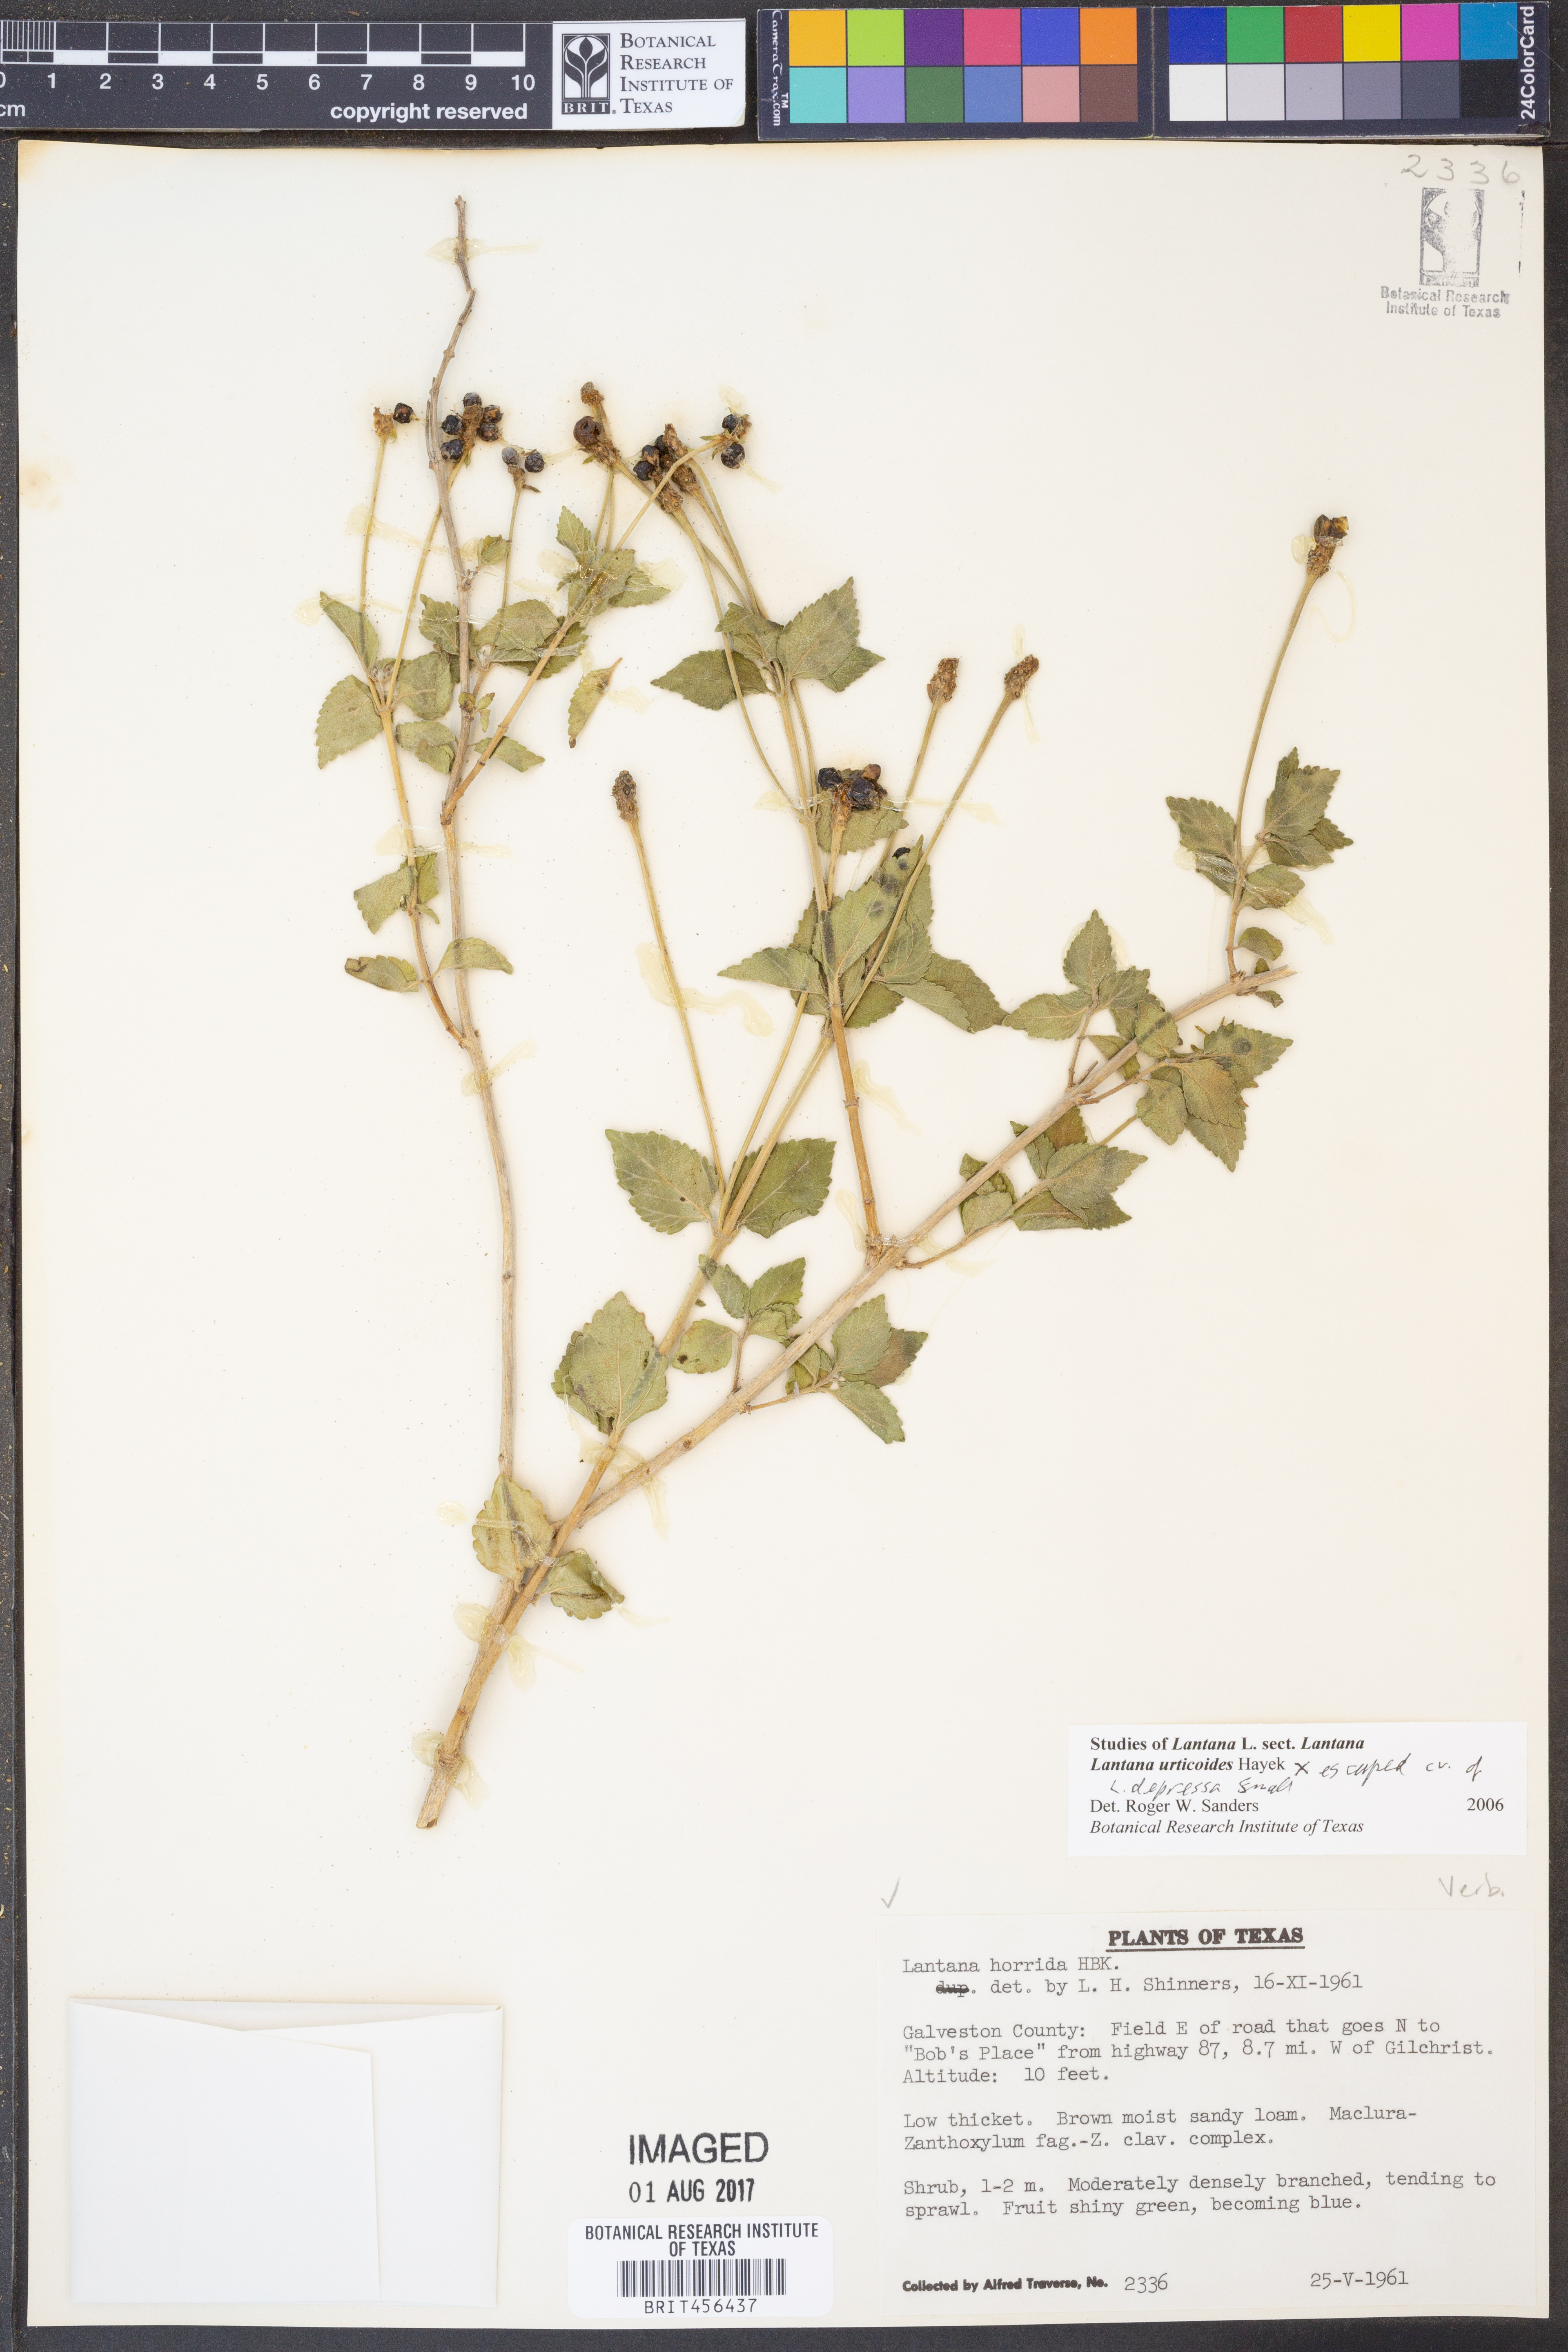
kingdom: Plantae
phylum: Tracheophyta
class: Magnoliopsida
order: Lamiales
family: Verbenaceae
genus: Lantana
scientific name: Lantana urticoides
